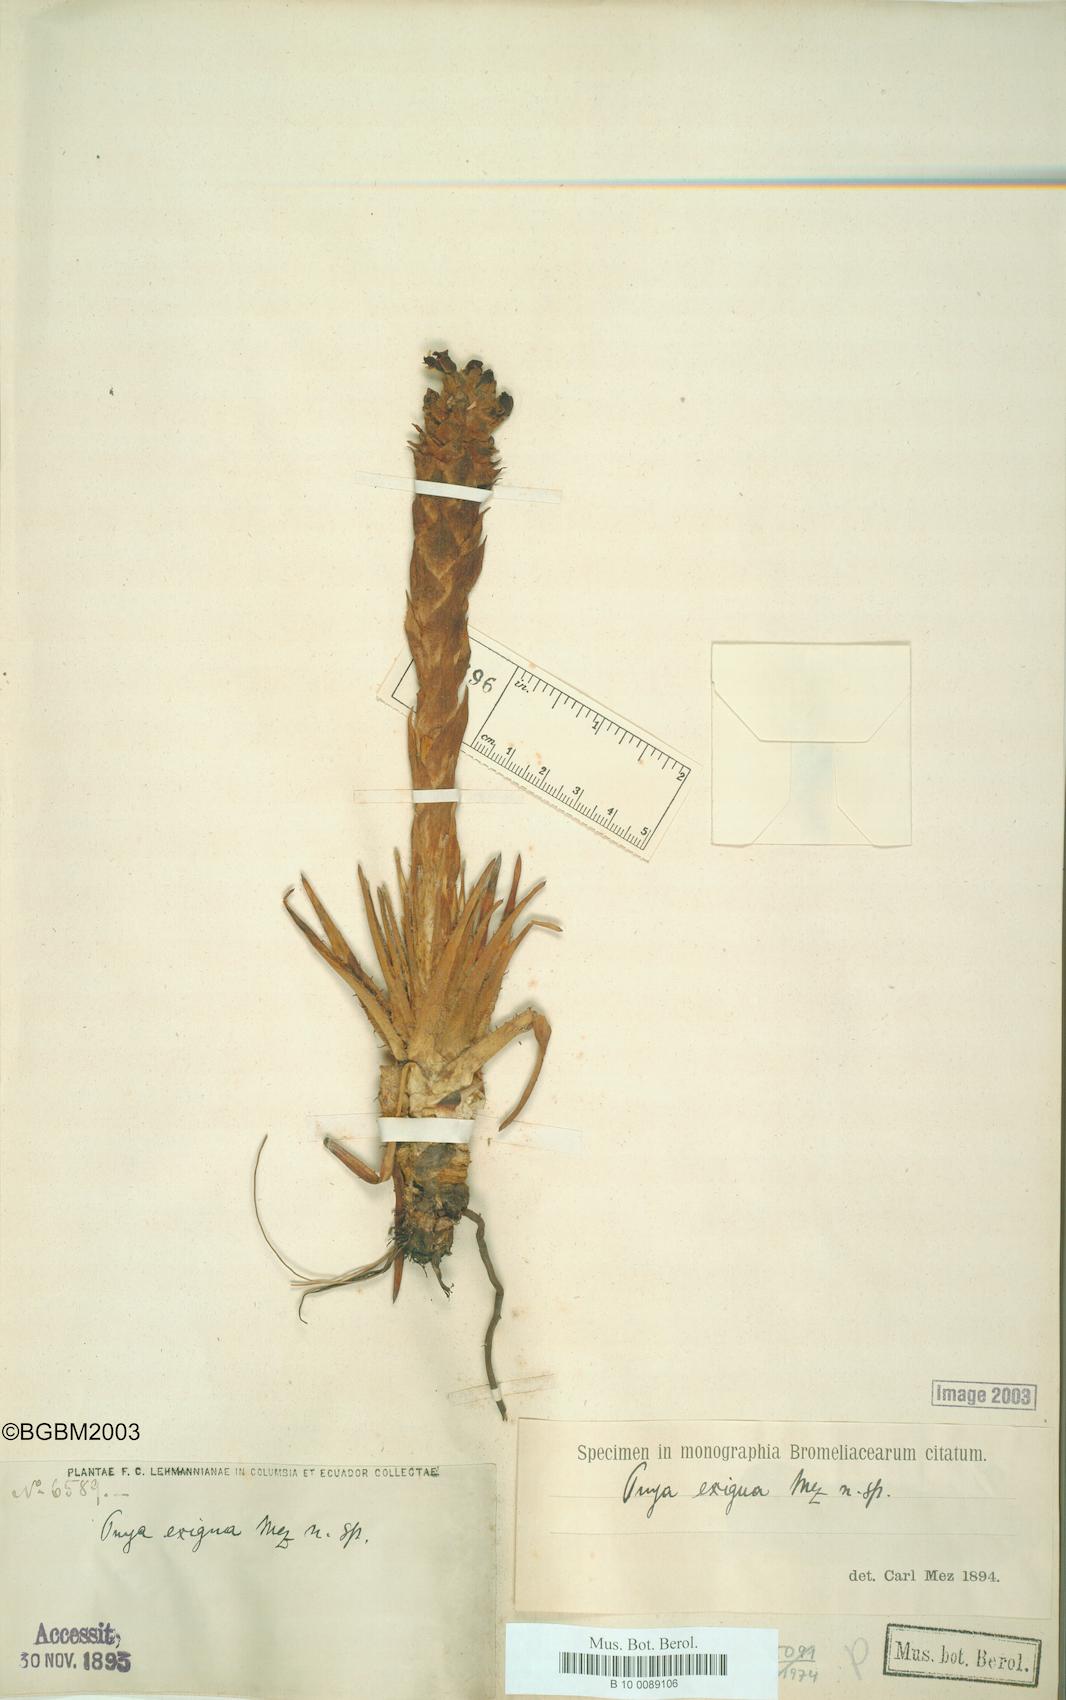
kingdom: Plantae
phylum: Tracheophyta
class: Liliopsida
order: Poales
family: Bromeliaceae
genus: Puya
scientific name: Puya exigua
